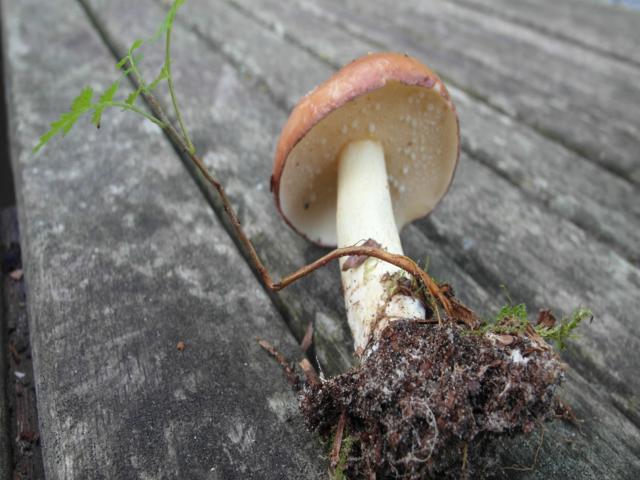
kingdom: Fungi
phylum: Basidiomycota
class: Agaricomycetes
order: Boletales
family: Suillaceae
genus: Suillus
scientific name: Suillus granulatus
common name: kornet slimrørhat
